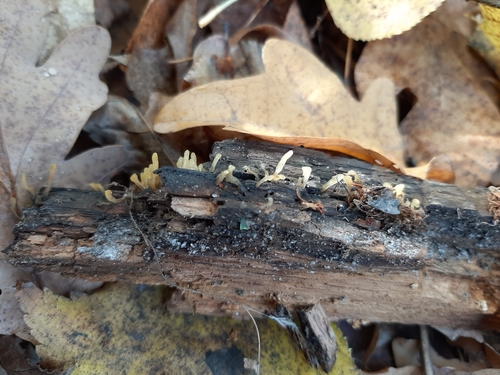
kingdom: Fungi
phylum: Basidiomycota
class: Dacrymycetes
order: Dacrymycetales
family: Dacrymycetaceae
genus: Calocera
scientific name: Calocera glossoides
